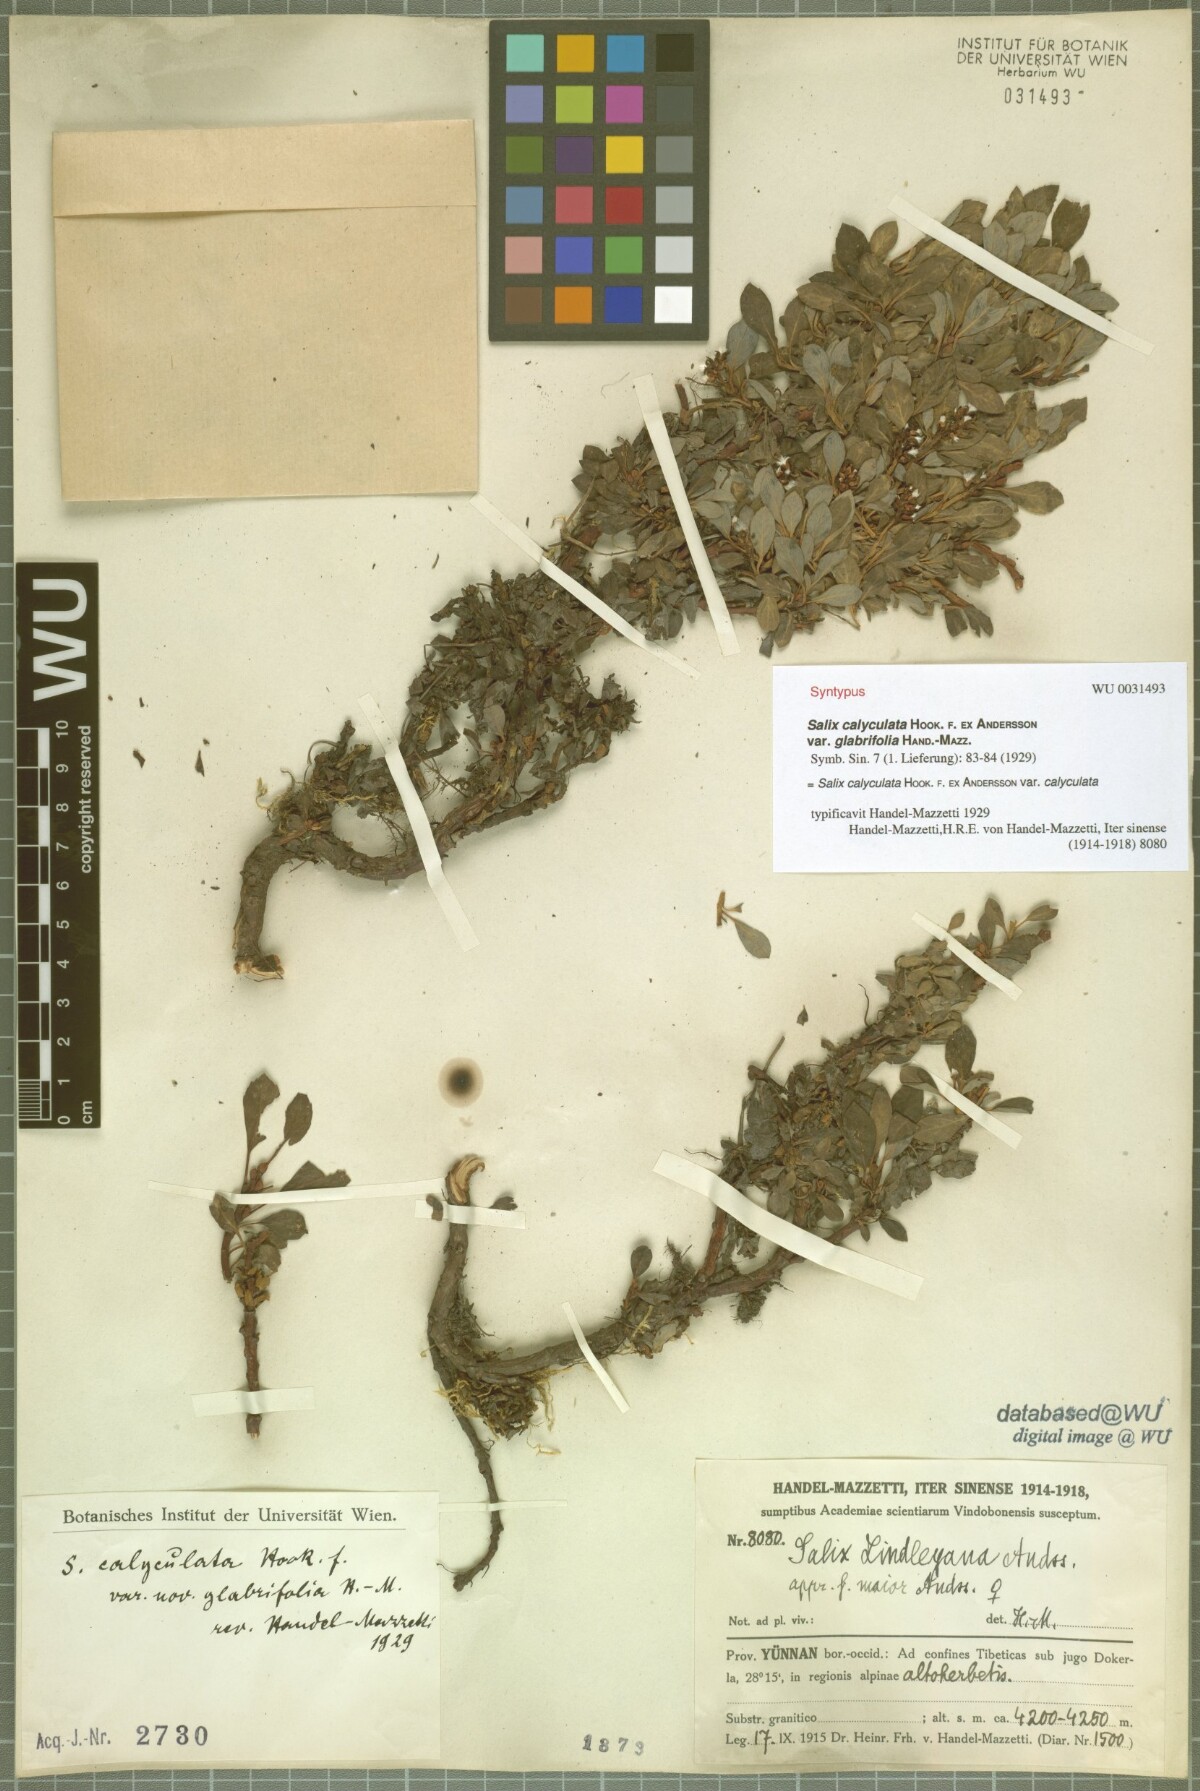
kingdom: Plantae
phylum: Tracheophyta
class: Magnoliopsida
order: Malpighiales
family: Salicaceae
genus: Salix
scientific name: Salix lindleyana
